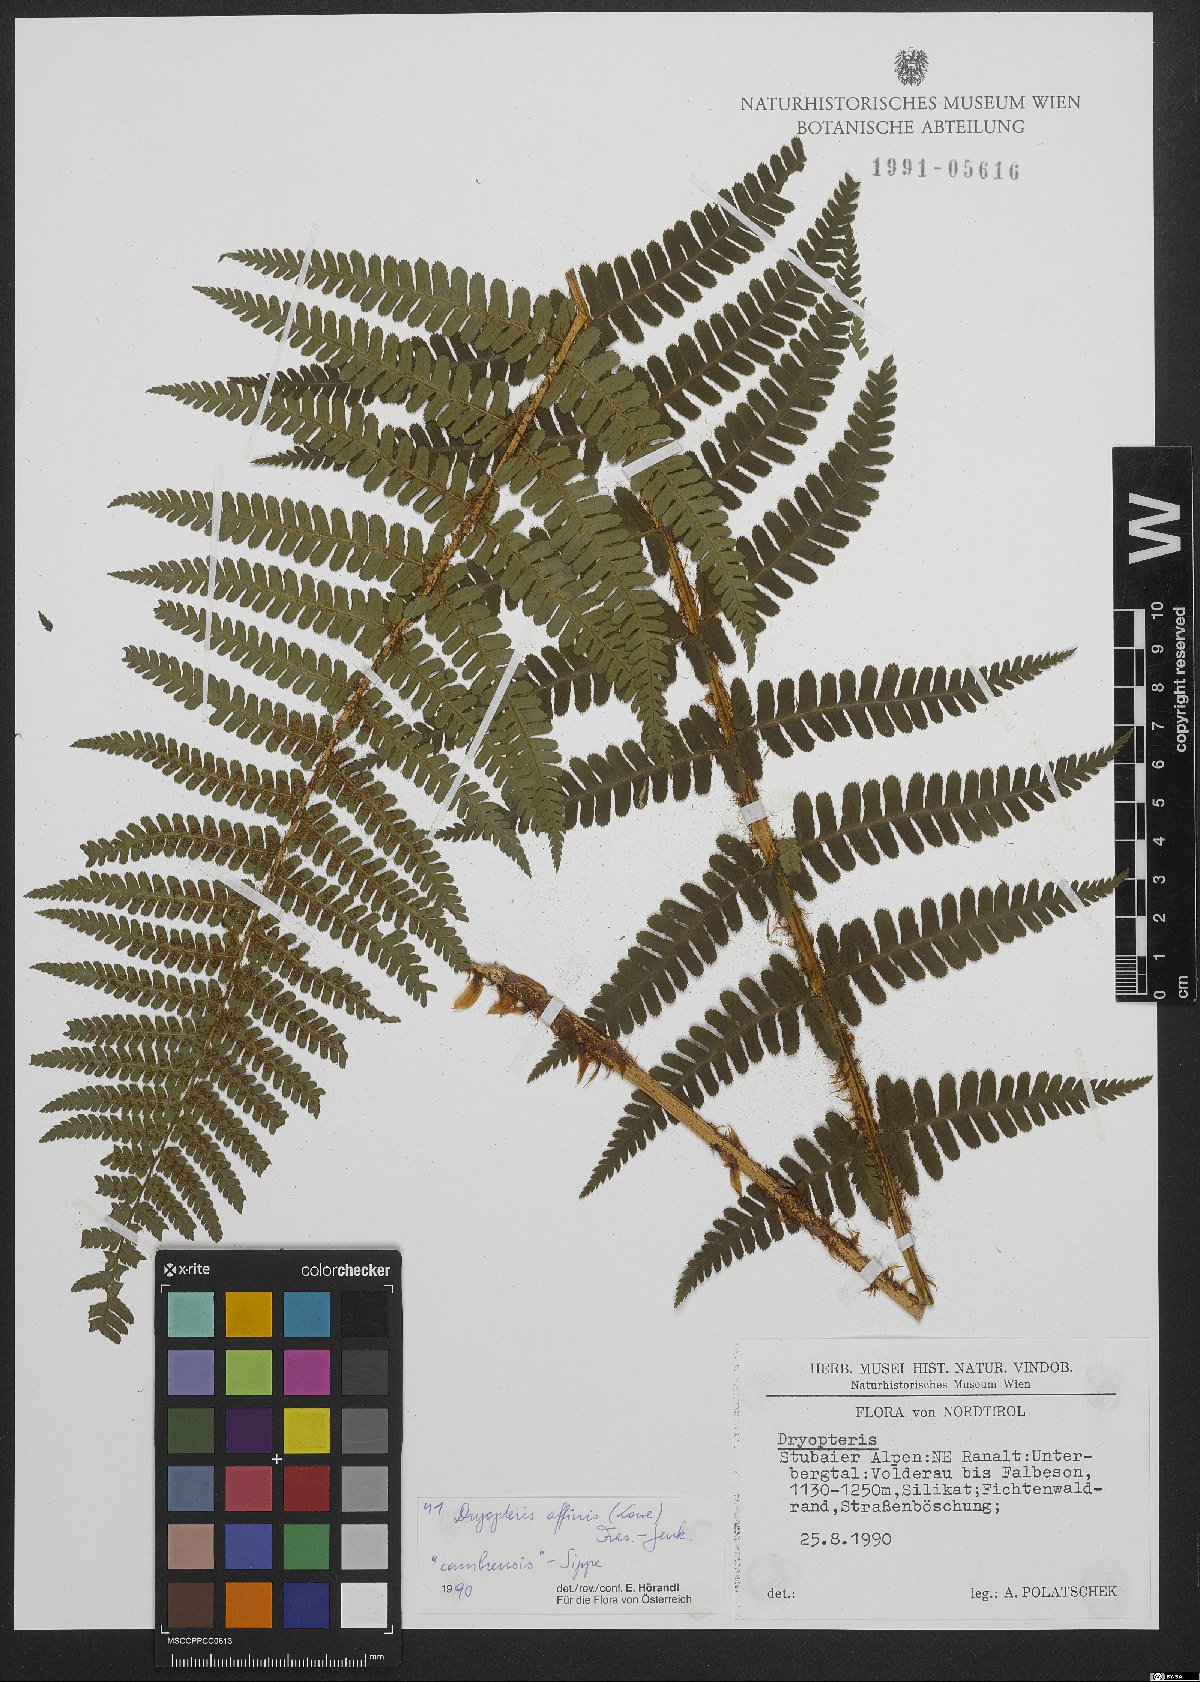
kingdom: Plantae
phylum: Tracheophyta
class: Polypodiopsida
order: Polypodiales
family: Dryopteridaceae
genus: Dryopteris
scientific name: Dryopteris cambrensis
